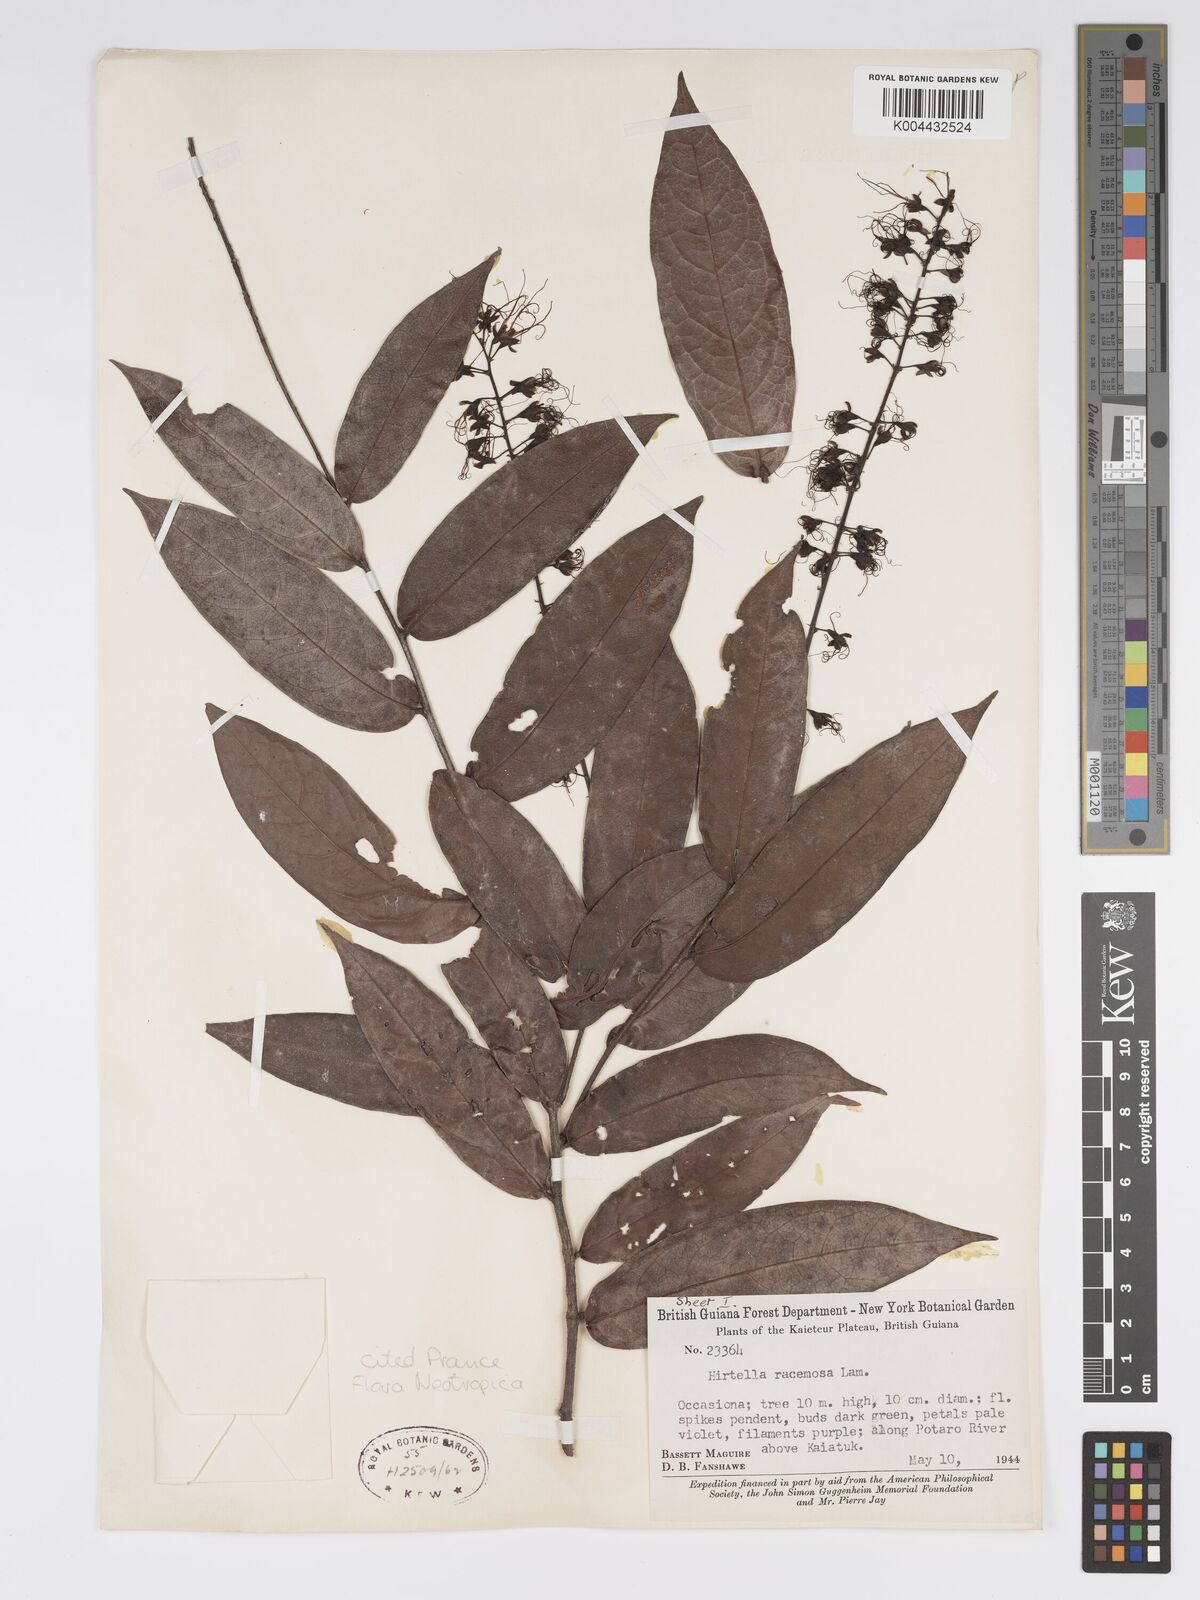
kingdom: Plantae
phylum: Tracheophyta
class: Magnoliopsida
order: Malpighiales
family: Chrysobalanaceae
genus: Hirtella
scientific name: Hirtella
